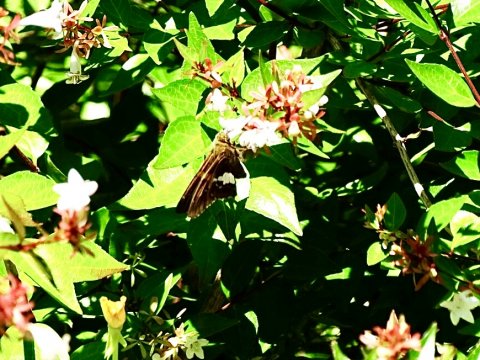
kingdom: Animalia
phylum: Arthropoda
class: Insecta
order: Lepidoptera
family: Hesperiidae
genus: Epargyreus
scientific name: Epargyreus clarus
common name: Silver-spotted Skipper
